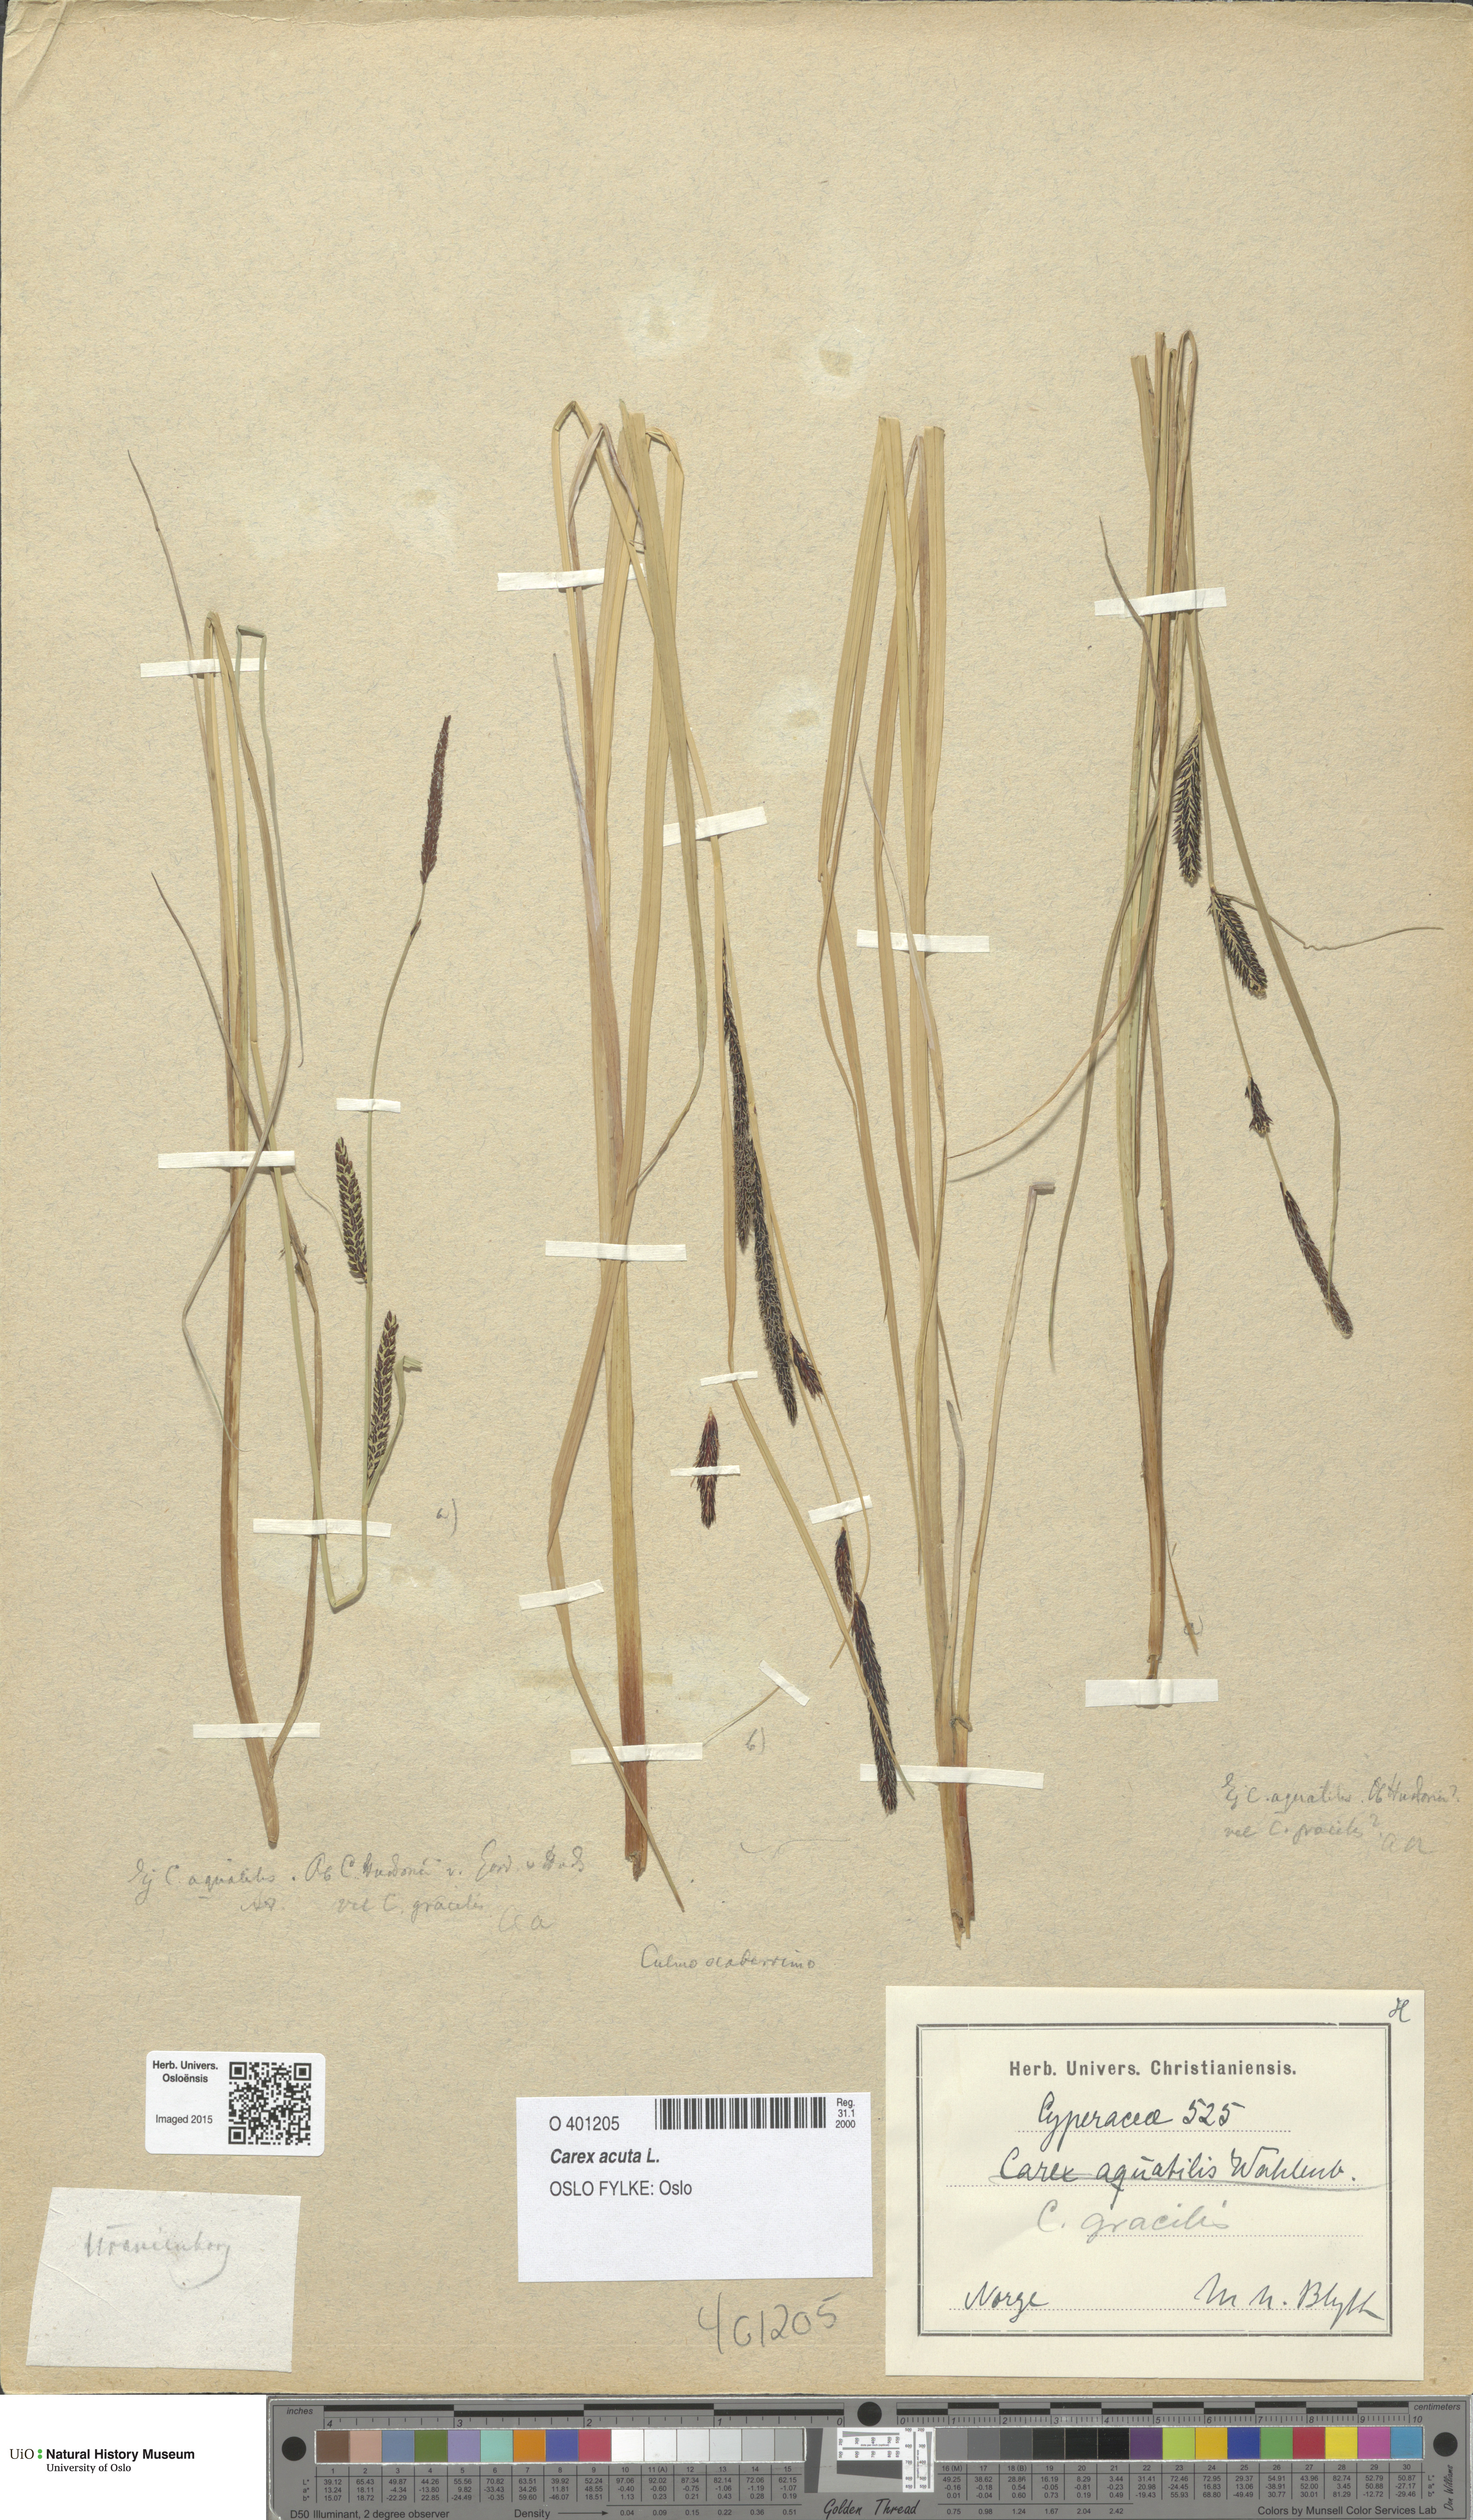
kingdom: Plantae
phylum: Tracheophyta
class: Liliopsida
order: Poales
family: Cyperaceae
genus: Carex
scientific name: Carex acuta
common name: Slender tufted-sedge
